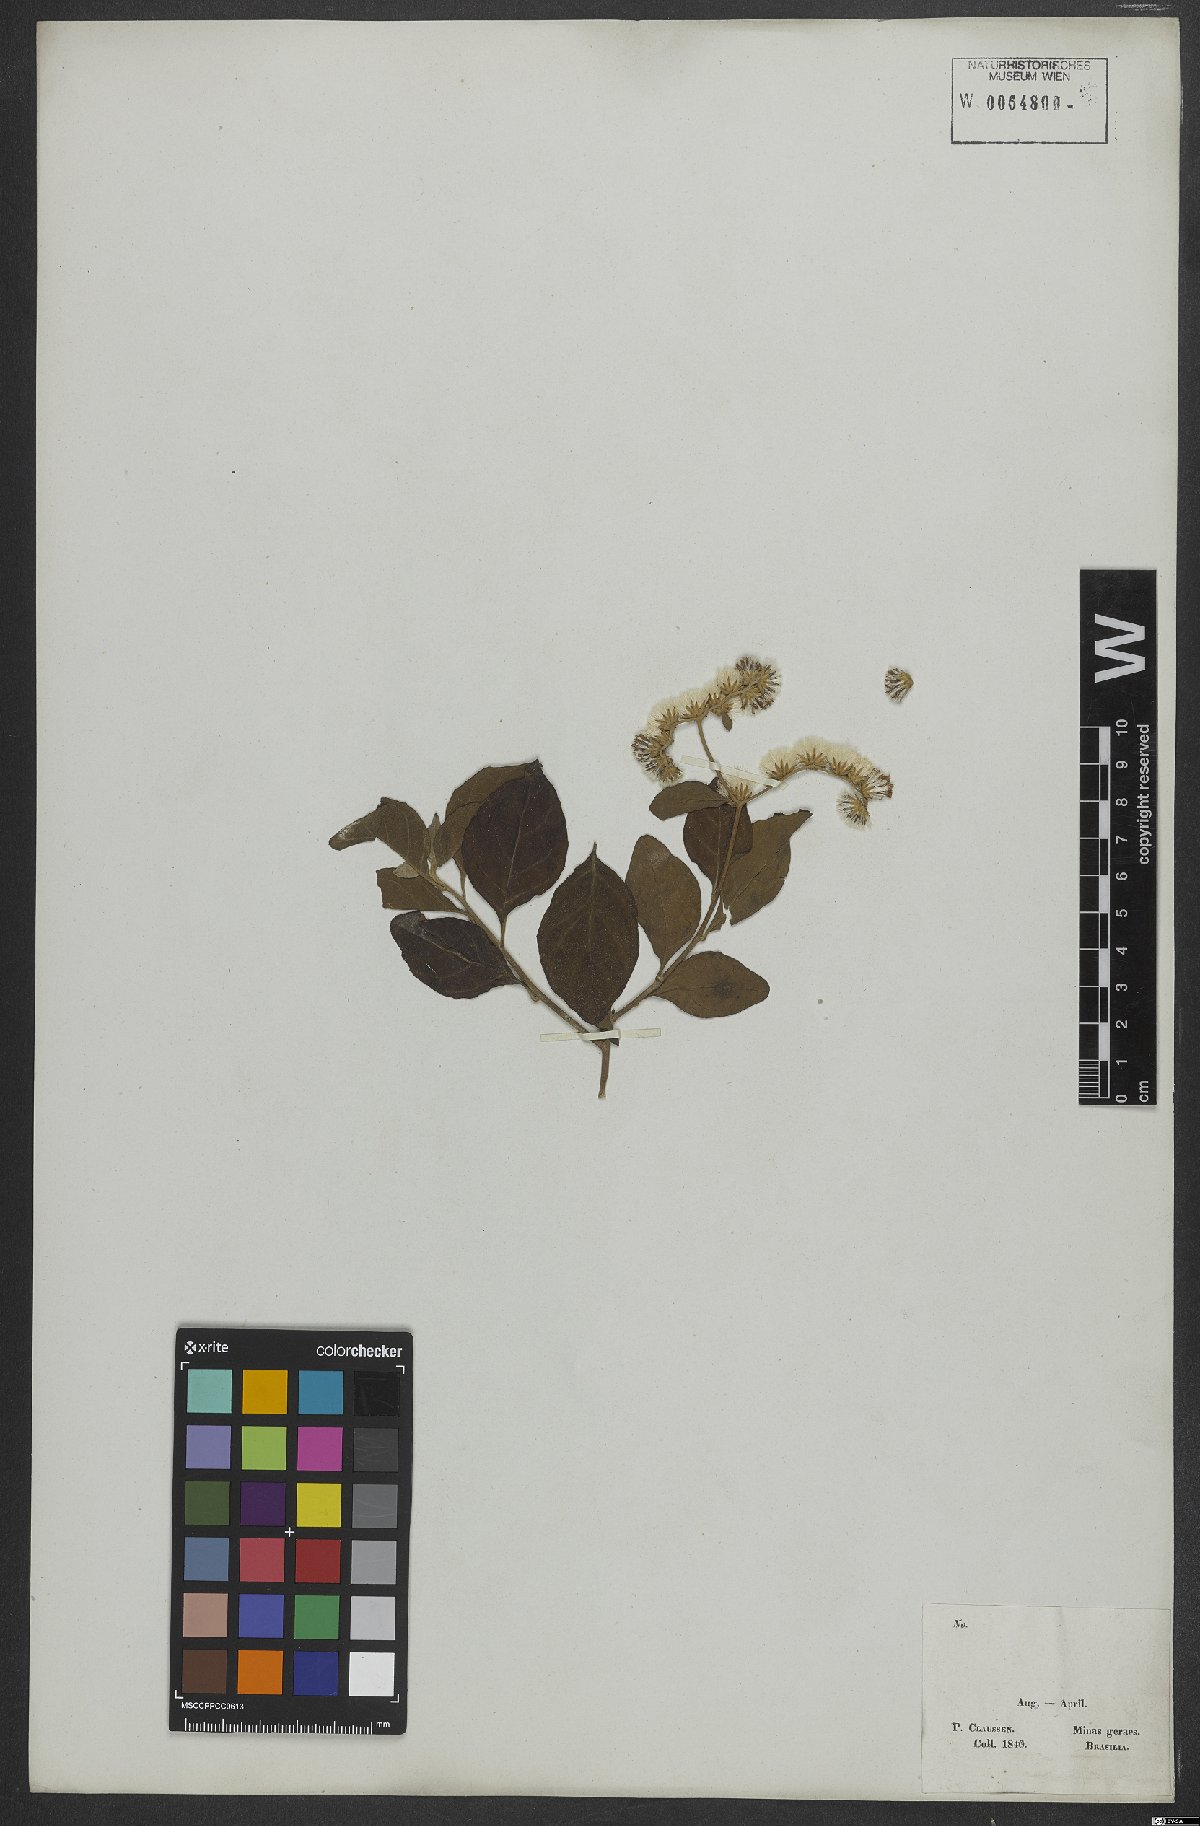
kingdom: Plantae
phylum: Tracheophyta
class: Magnoliopsida
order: Asterales
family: Asteraceae
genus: Cyrtocymura
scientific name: Cyrtocymura scorpioides
